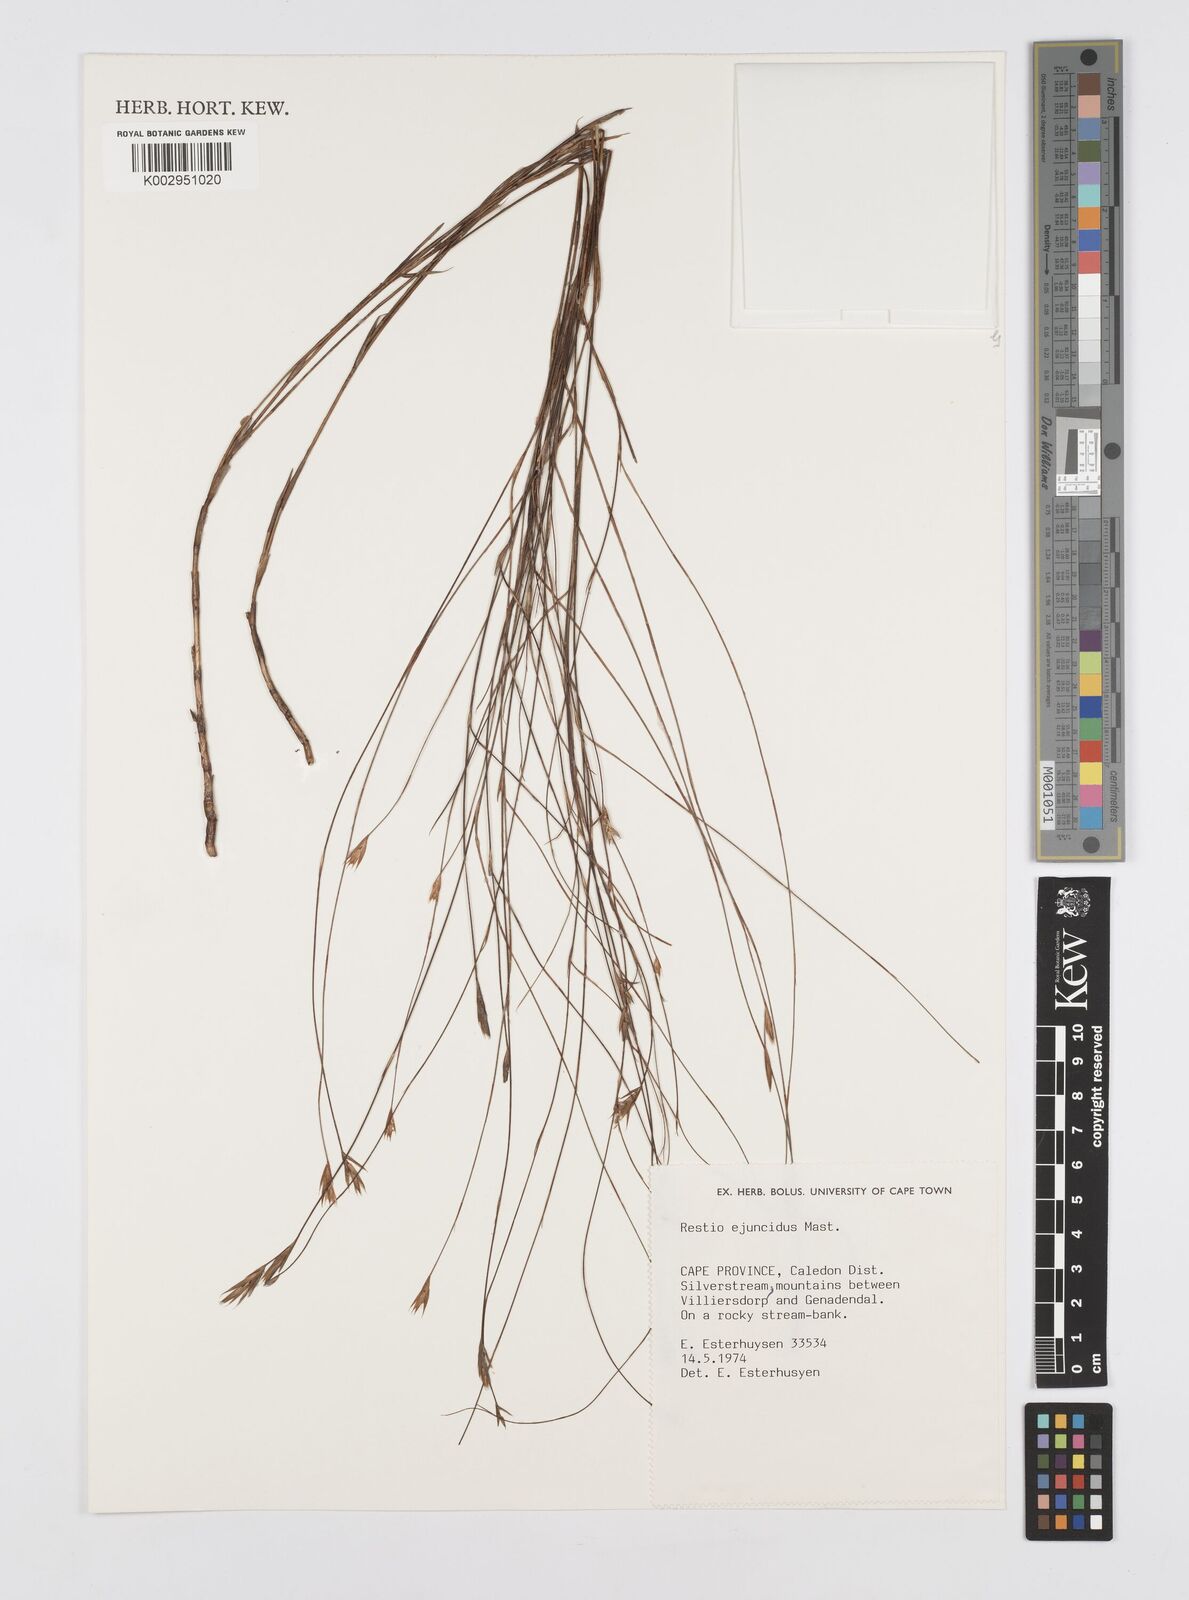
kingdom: Plantae
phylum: Tracheophyta
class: Liliopsida
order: Poales
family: Restionaceae
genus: Restio
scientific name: Restio ejuncidus
